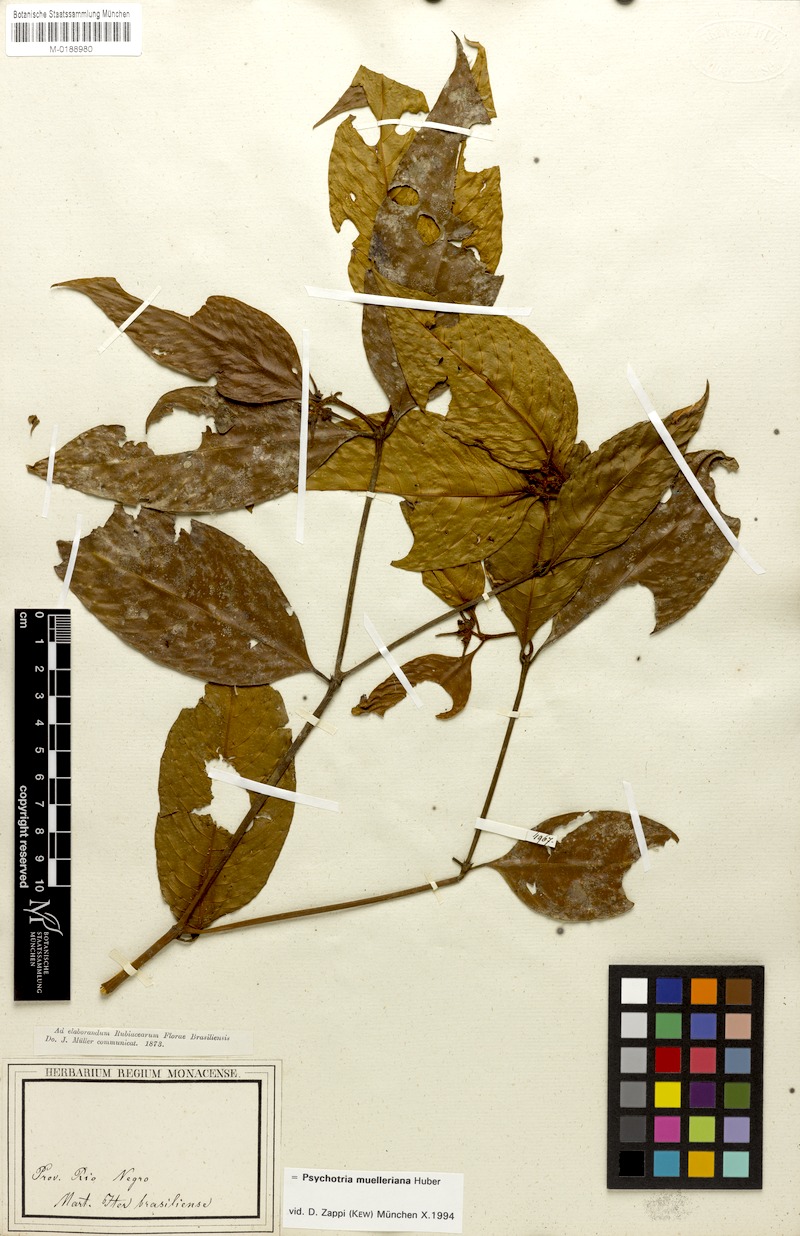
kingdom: Plantae
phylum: Tracheophyta
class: Magnoliopsida
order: Gentianales
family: Rubiaceae
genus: Palicourea
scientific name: Palicourea iodotricha
